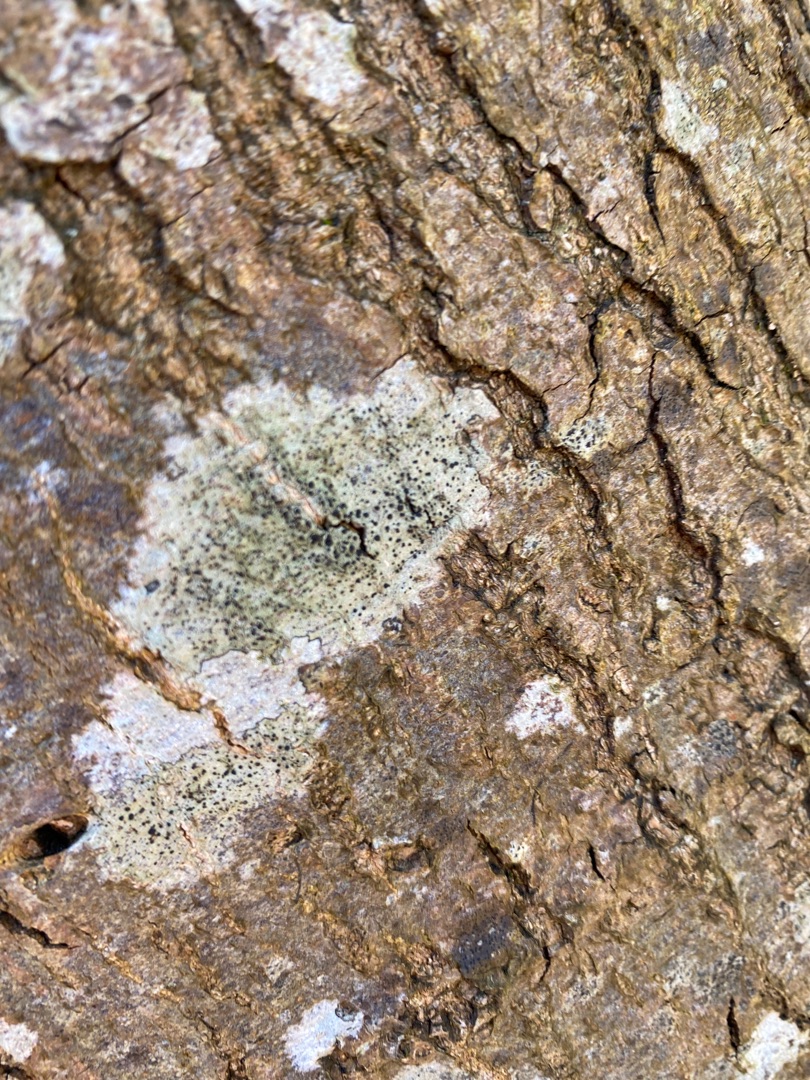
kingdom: Fungi
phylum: Ascomycota
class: Lecanoromycetes
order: Lecanorales
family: Lecanoraceae
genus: Lecidella
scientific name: Lecidella elaeochroma
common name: Grågrøn skivelav
